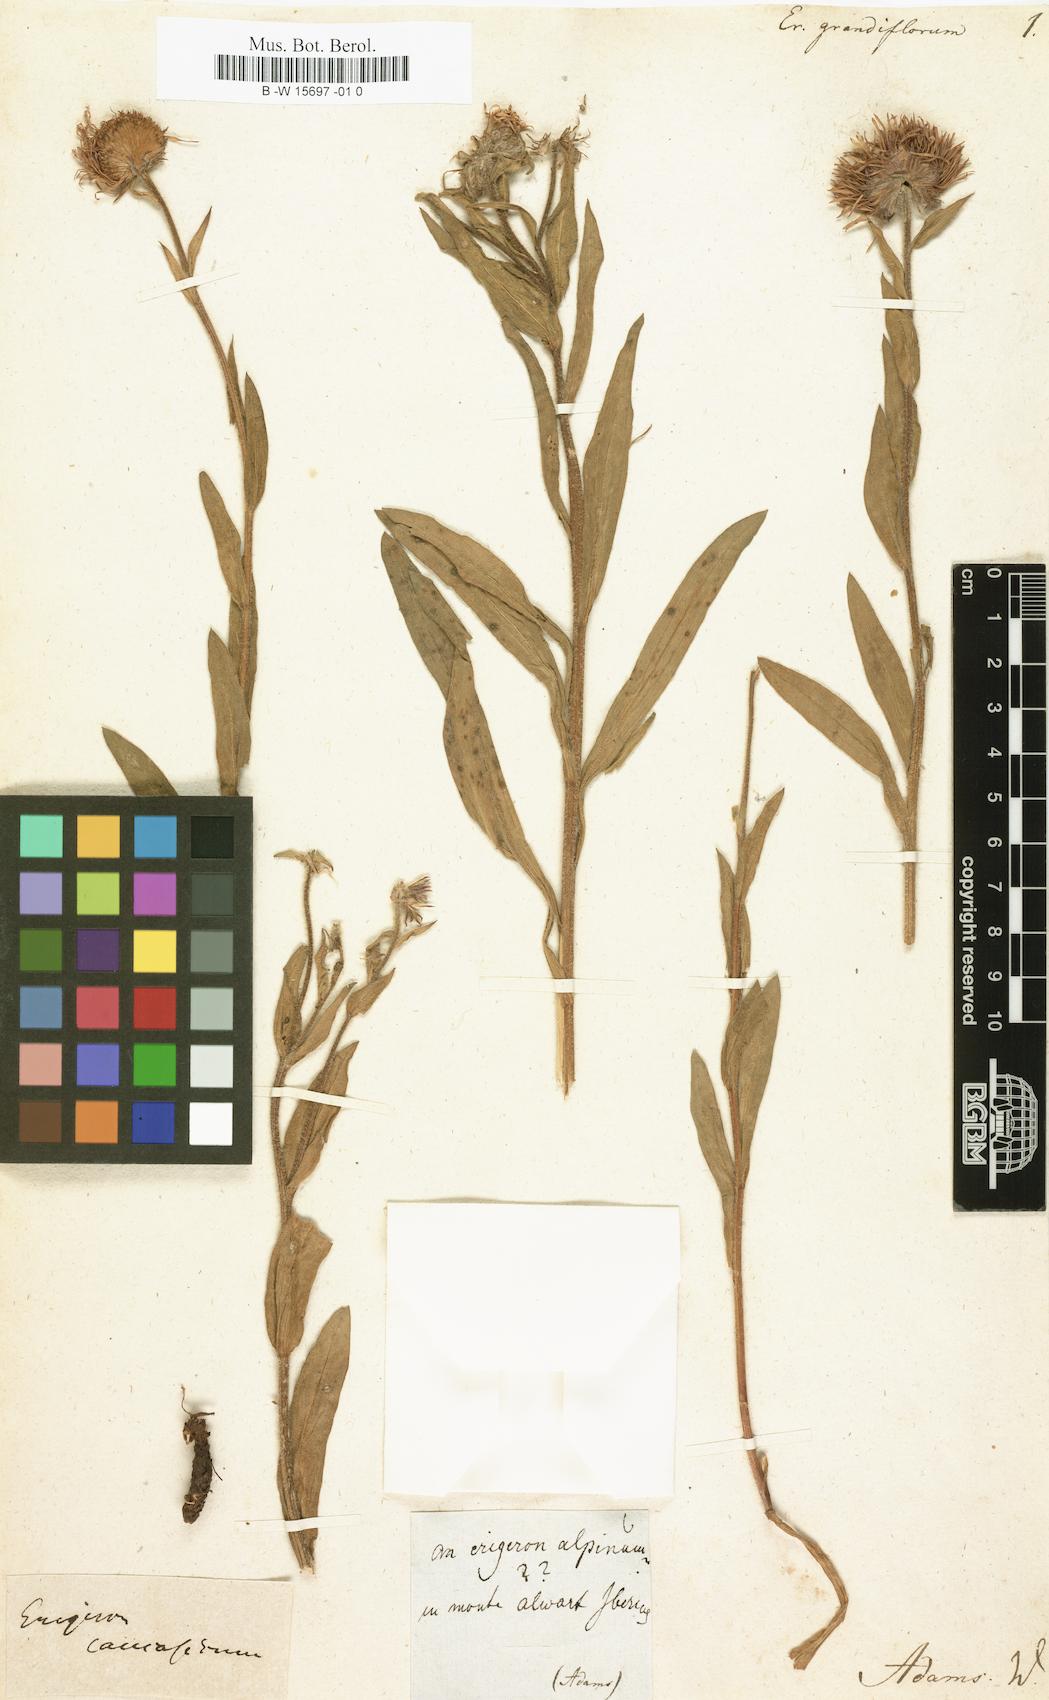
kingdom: Plantae
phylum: Tracheophyta
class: Magnoliopsida
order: Asterales
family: Asteraceae
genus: Erigeron
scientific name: Erigeron grandiflorus
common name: Rocky mountain alpine fleabane
